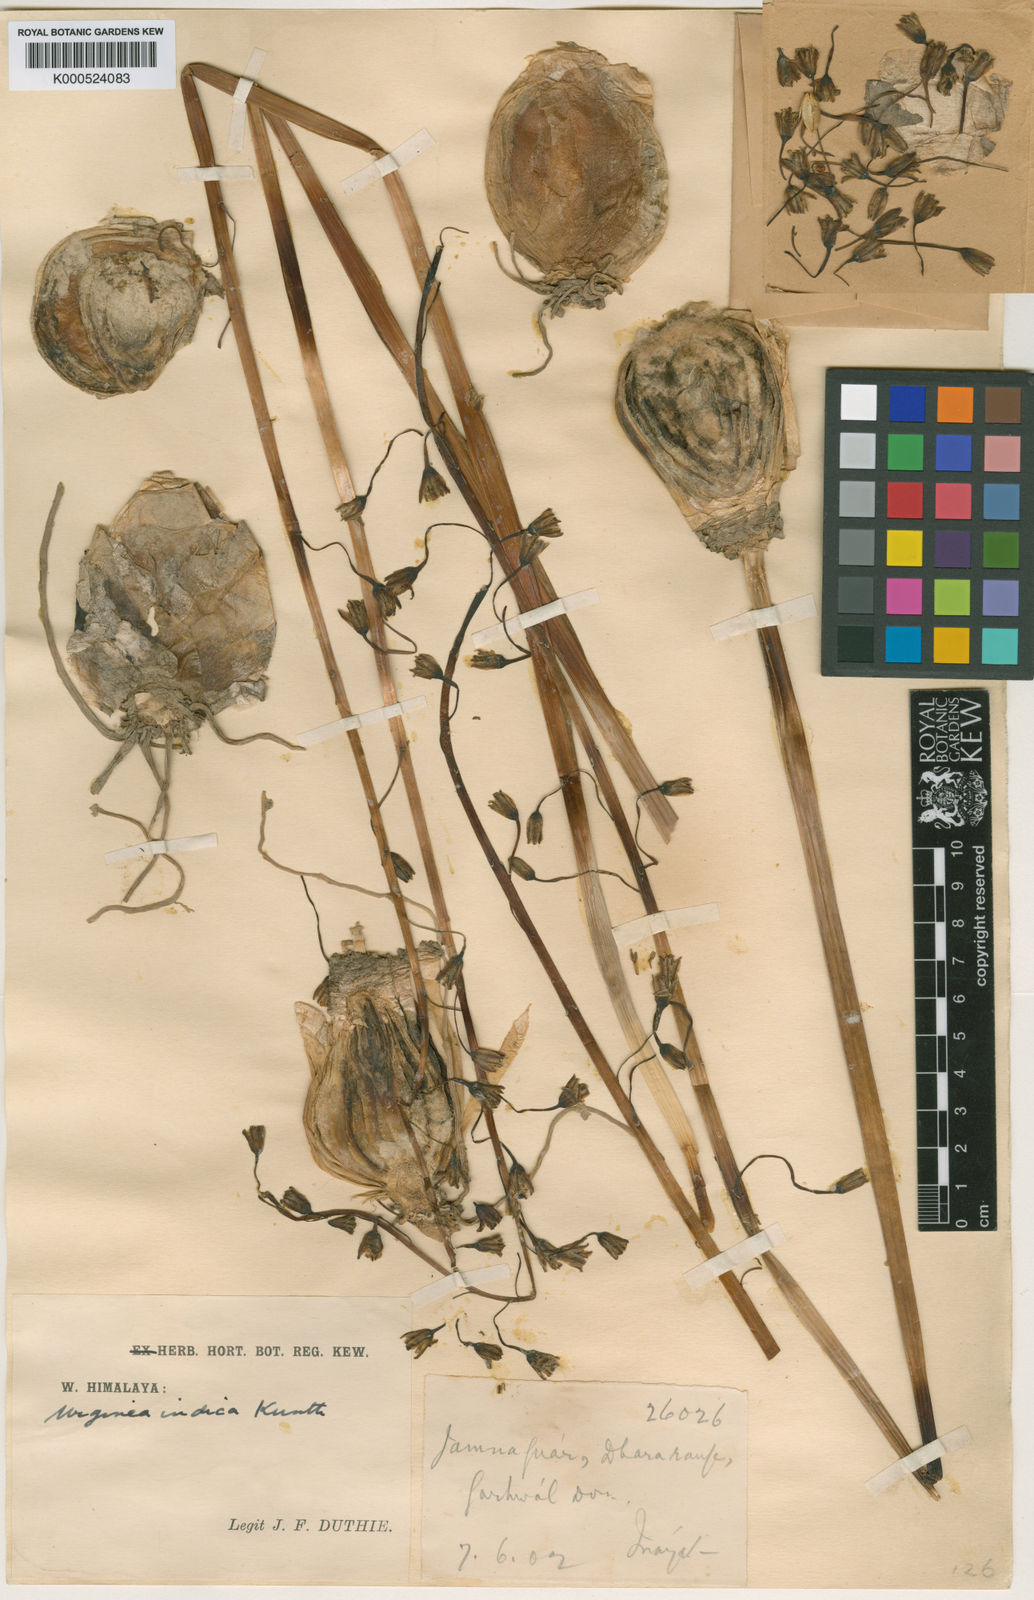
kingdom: Plantae
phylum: Tracheophyta
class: Liliopsida
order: Asparagales
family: Asparagaceae
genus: Drimia
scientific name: Drimia indica
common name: Indian-squill
